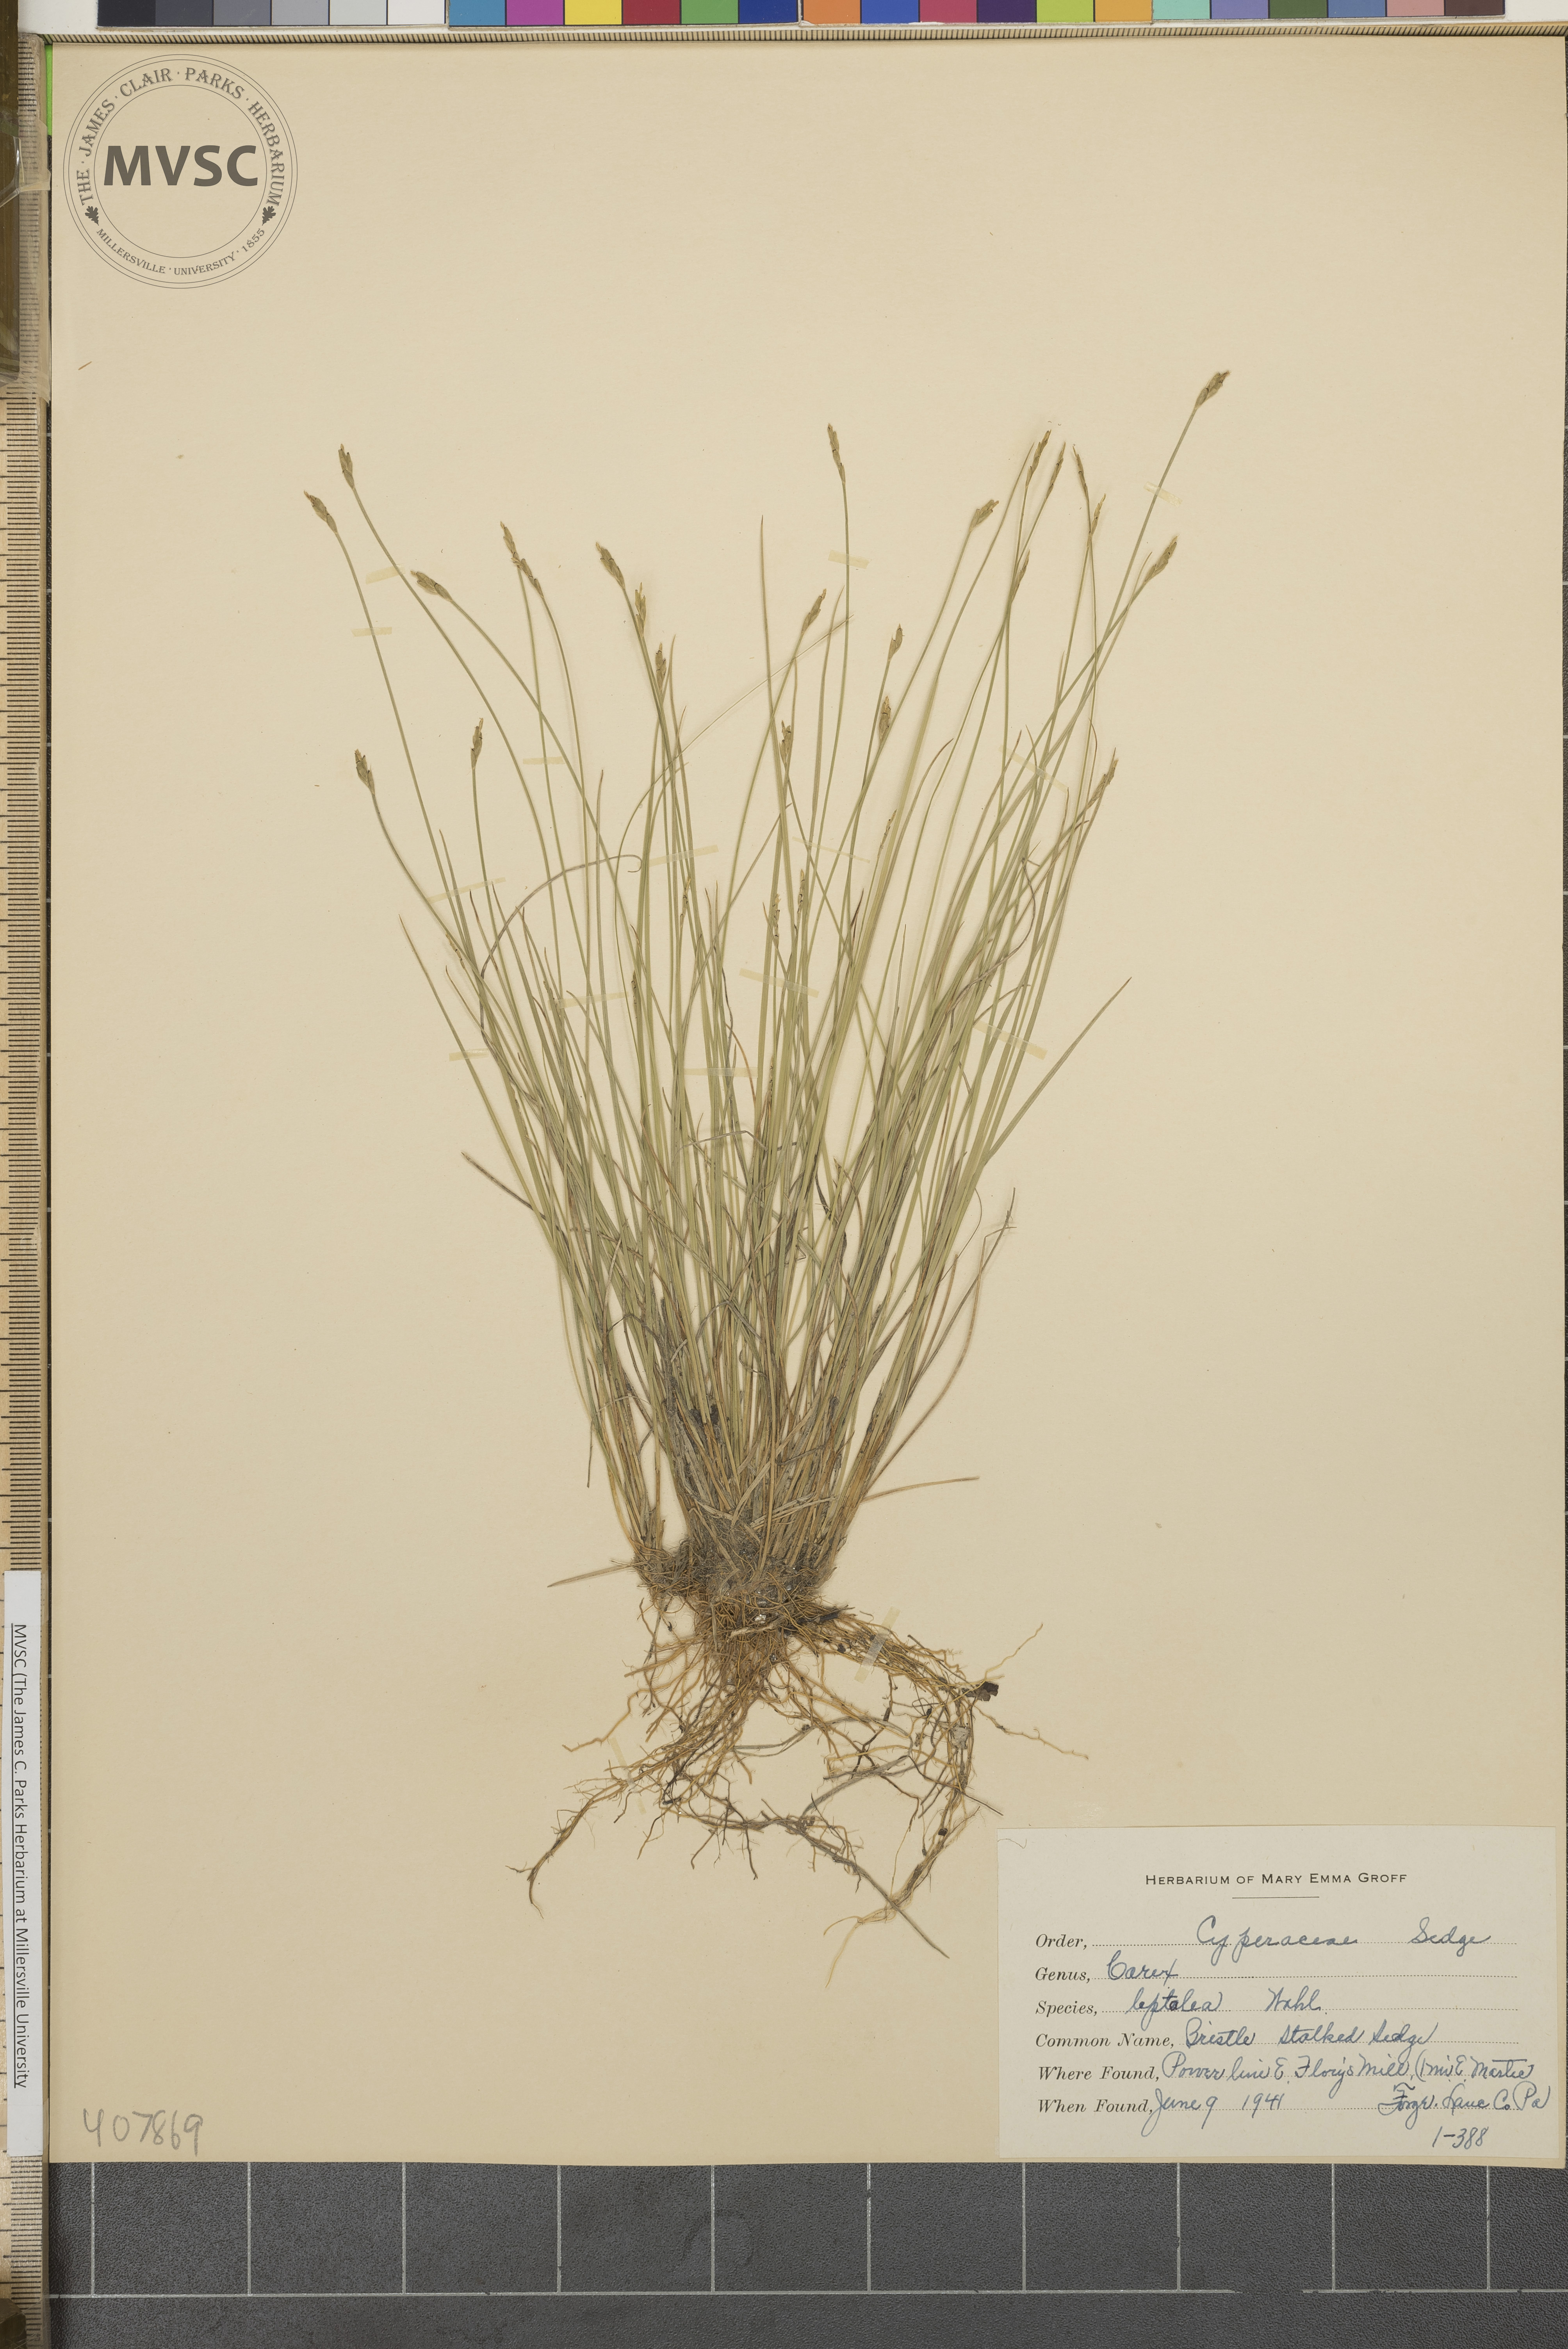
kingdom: Plantae
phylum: Tracheophyta
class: Liliopsida
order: Poales
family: Cyperaceae
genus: Carex
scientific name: Carex leptalea
